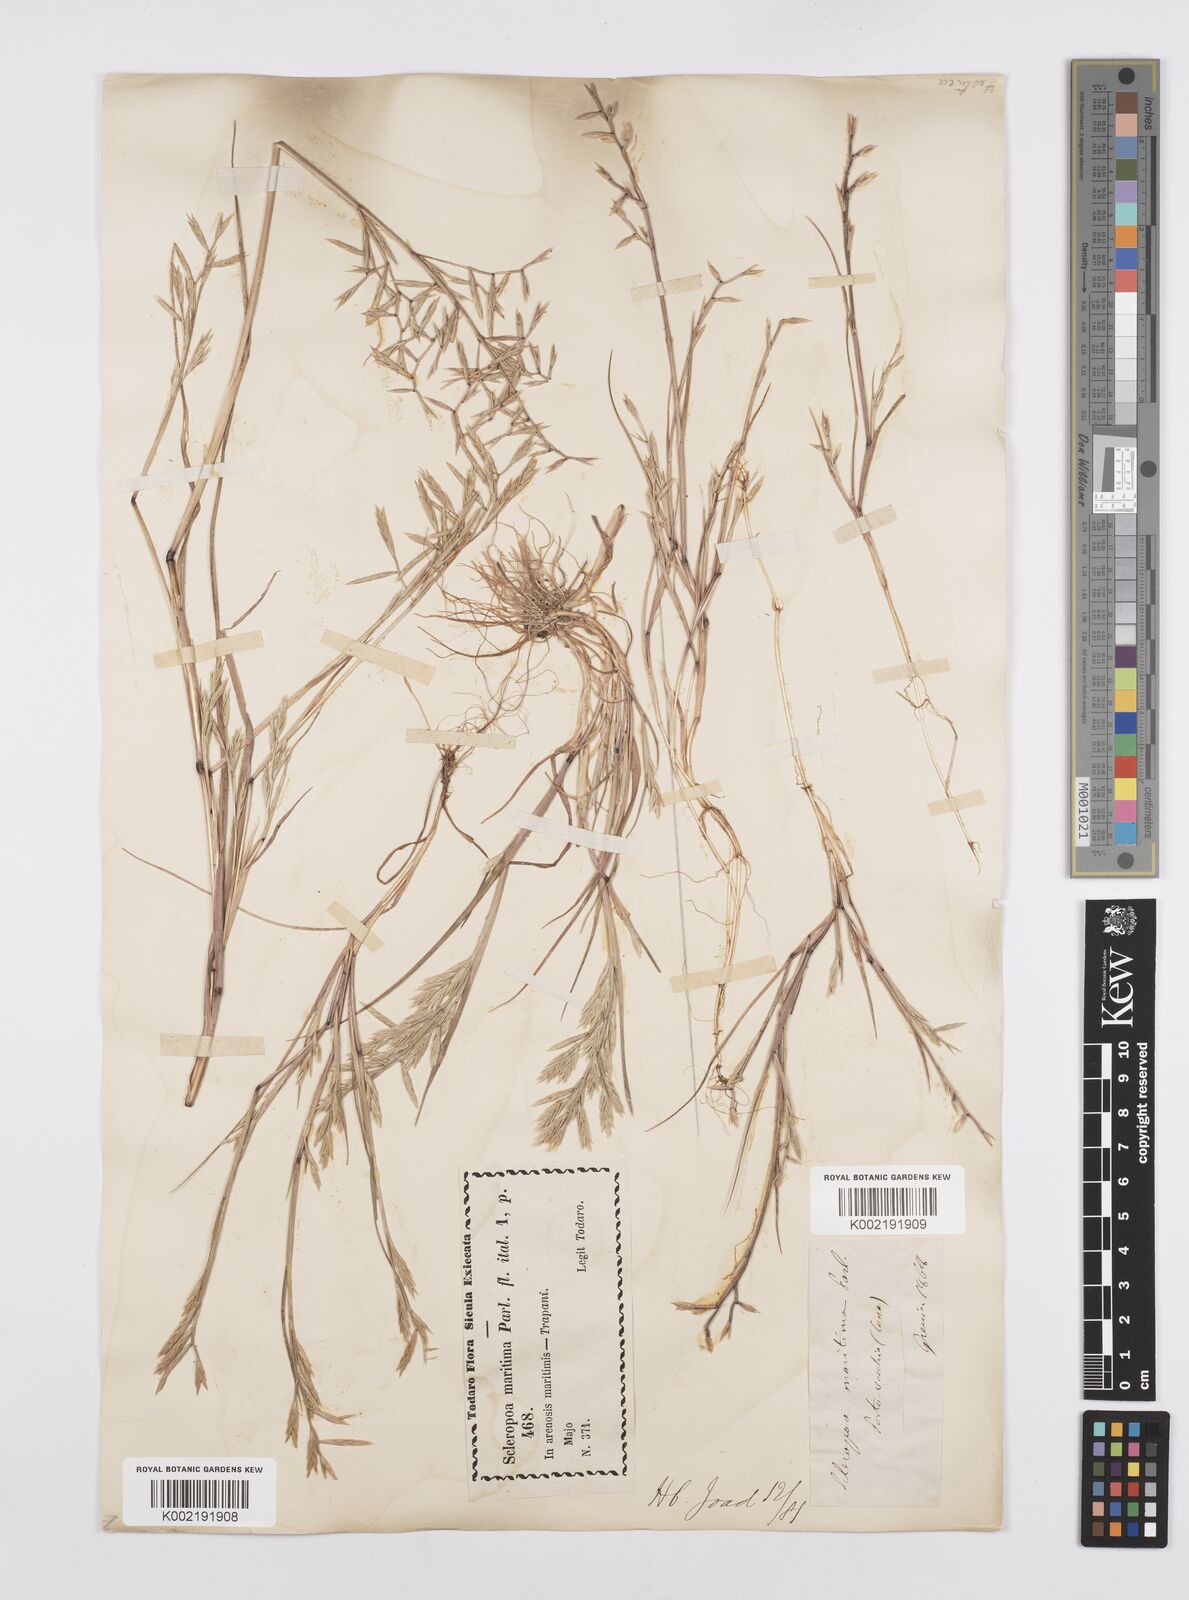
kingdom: Plantae
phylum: Tracheophyta
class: Liliopsida
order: Poales
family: Poaceae
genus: Cutandia
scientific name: Cutandia maritima
